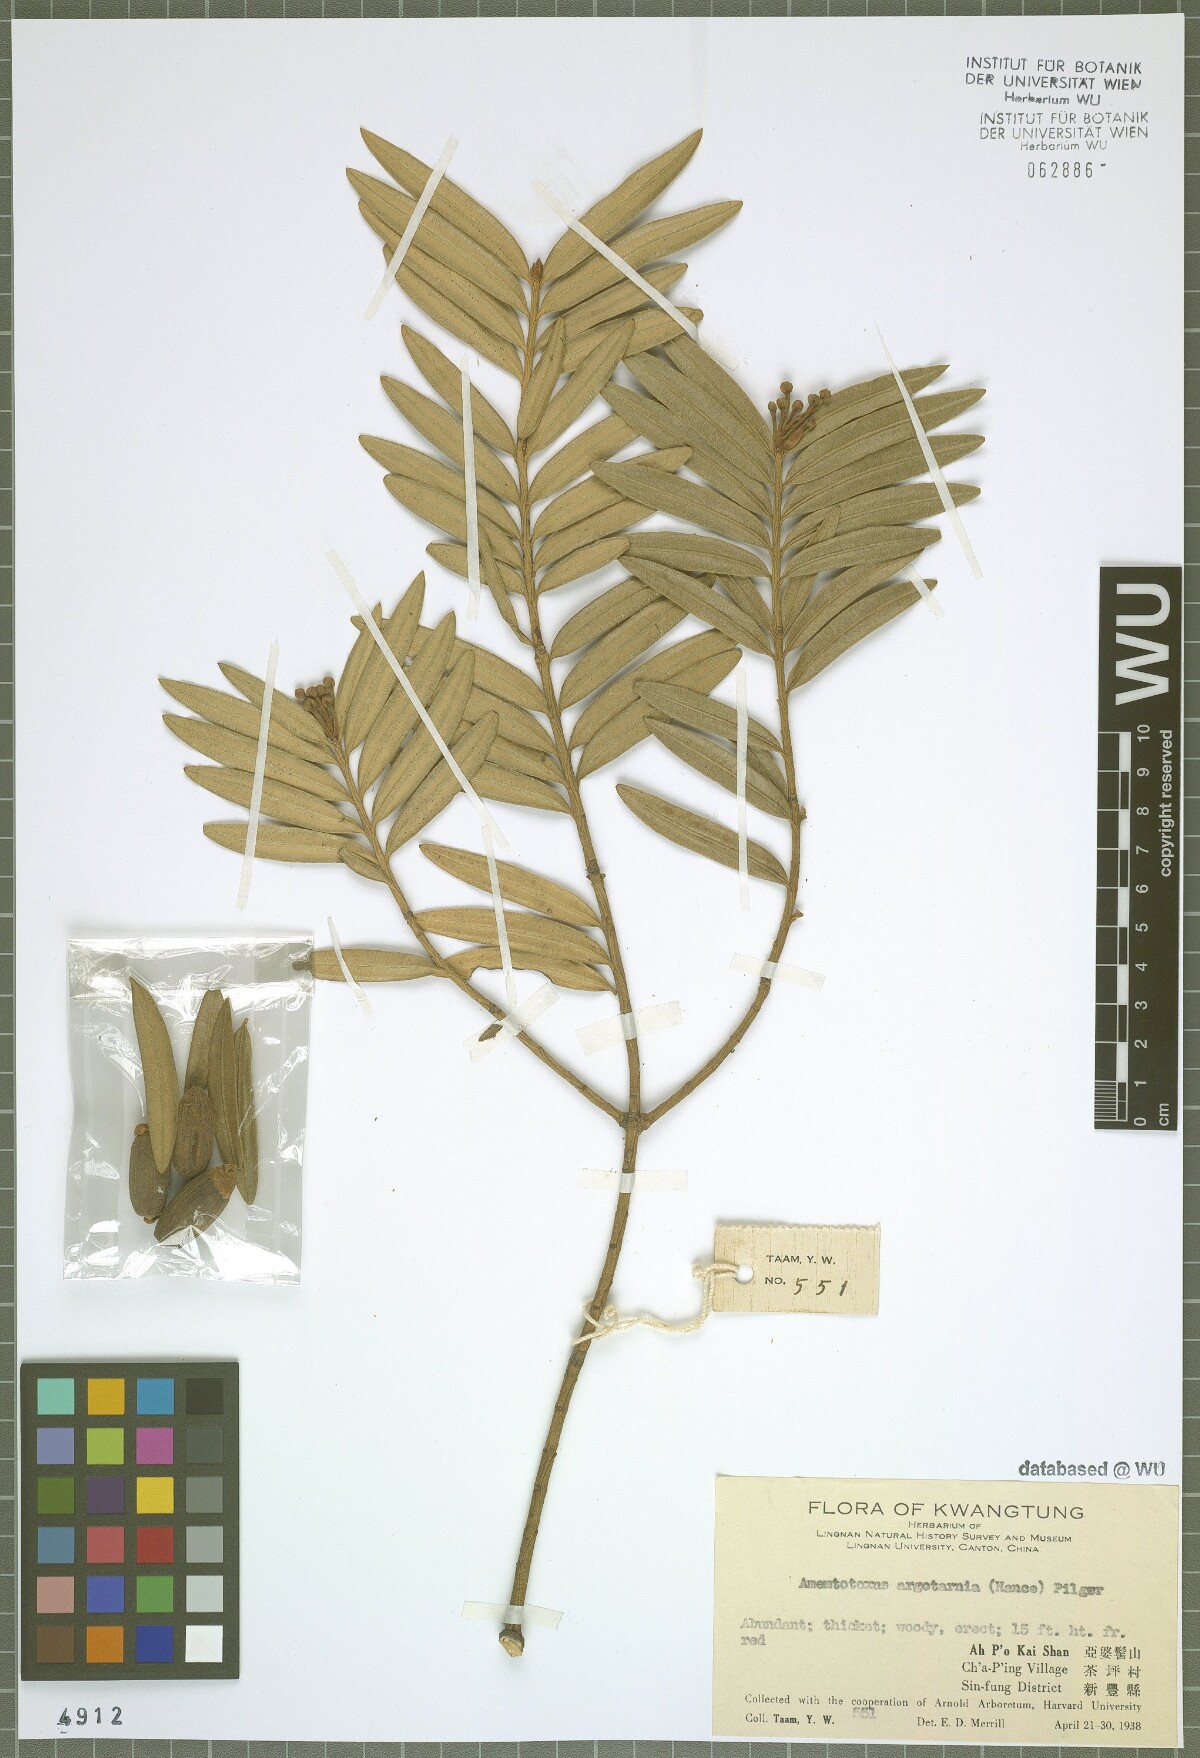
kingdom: Plantae
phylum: Tracheophyta
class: Pinopsida
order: Pinales
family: Taxaceae
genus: Amentotaxus
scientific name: Amentotaxus argotaenia
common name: Catkin yew
